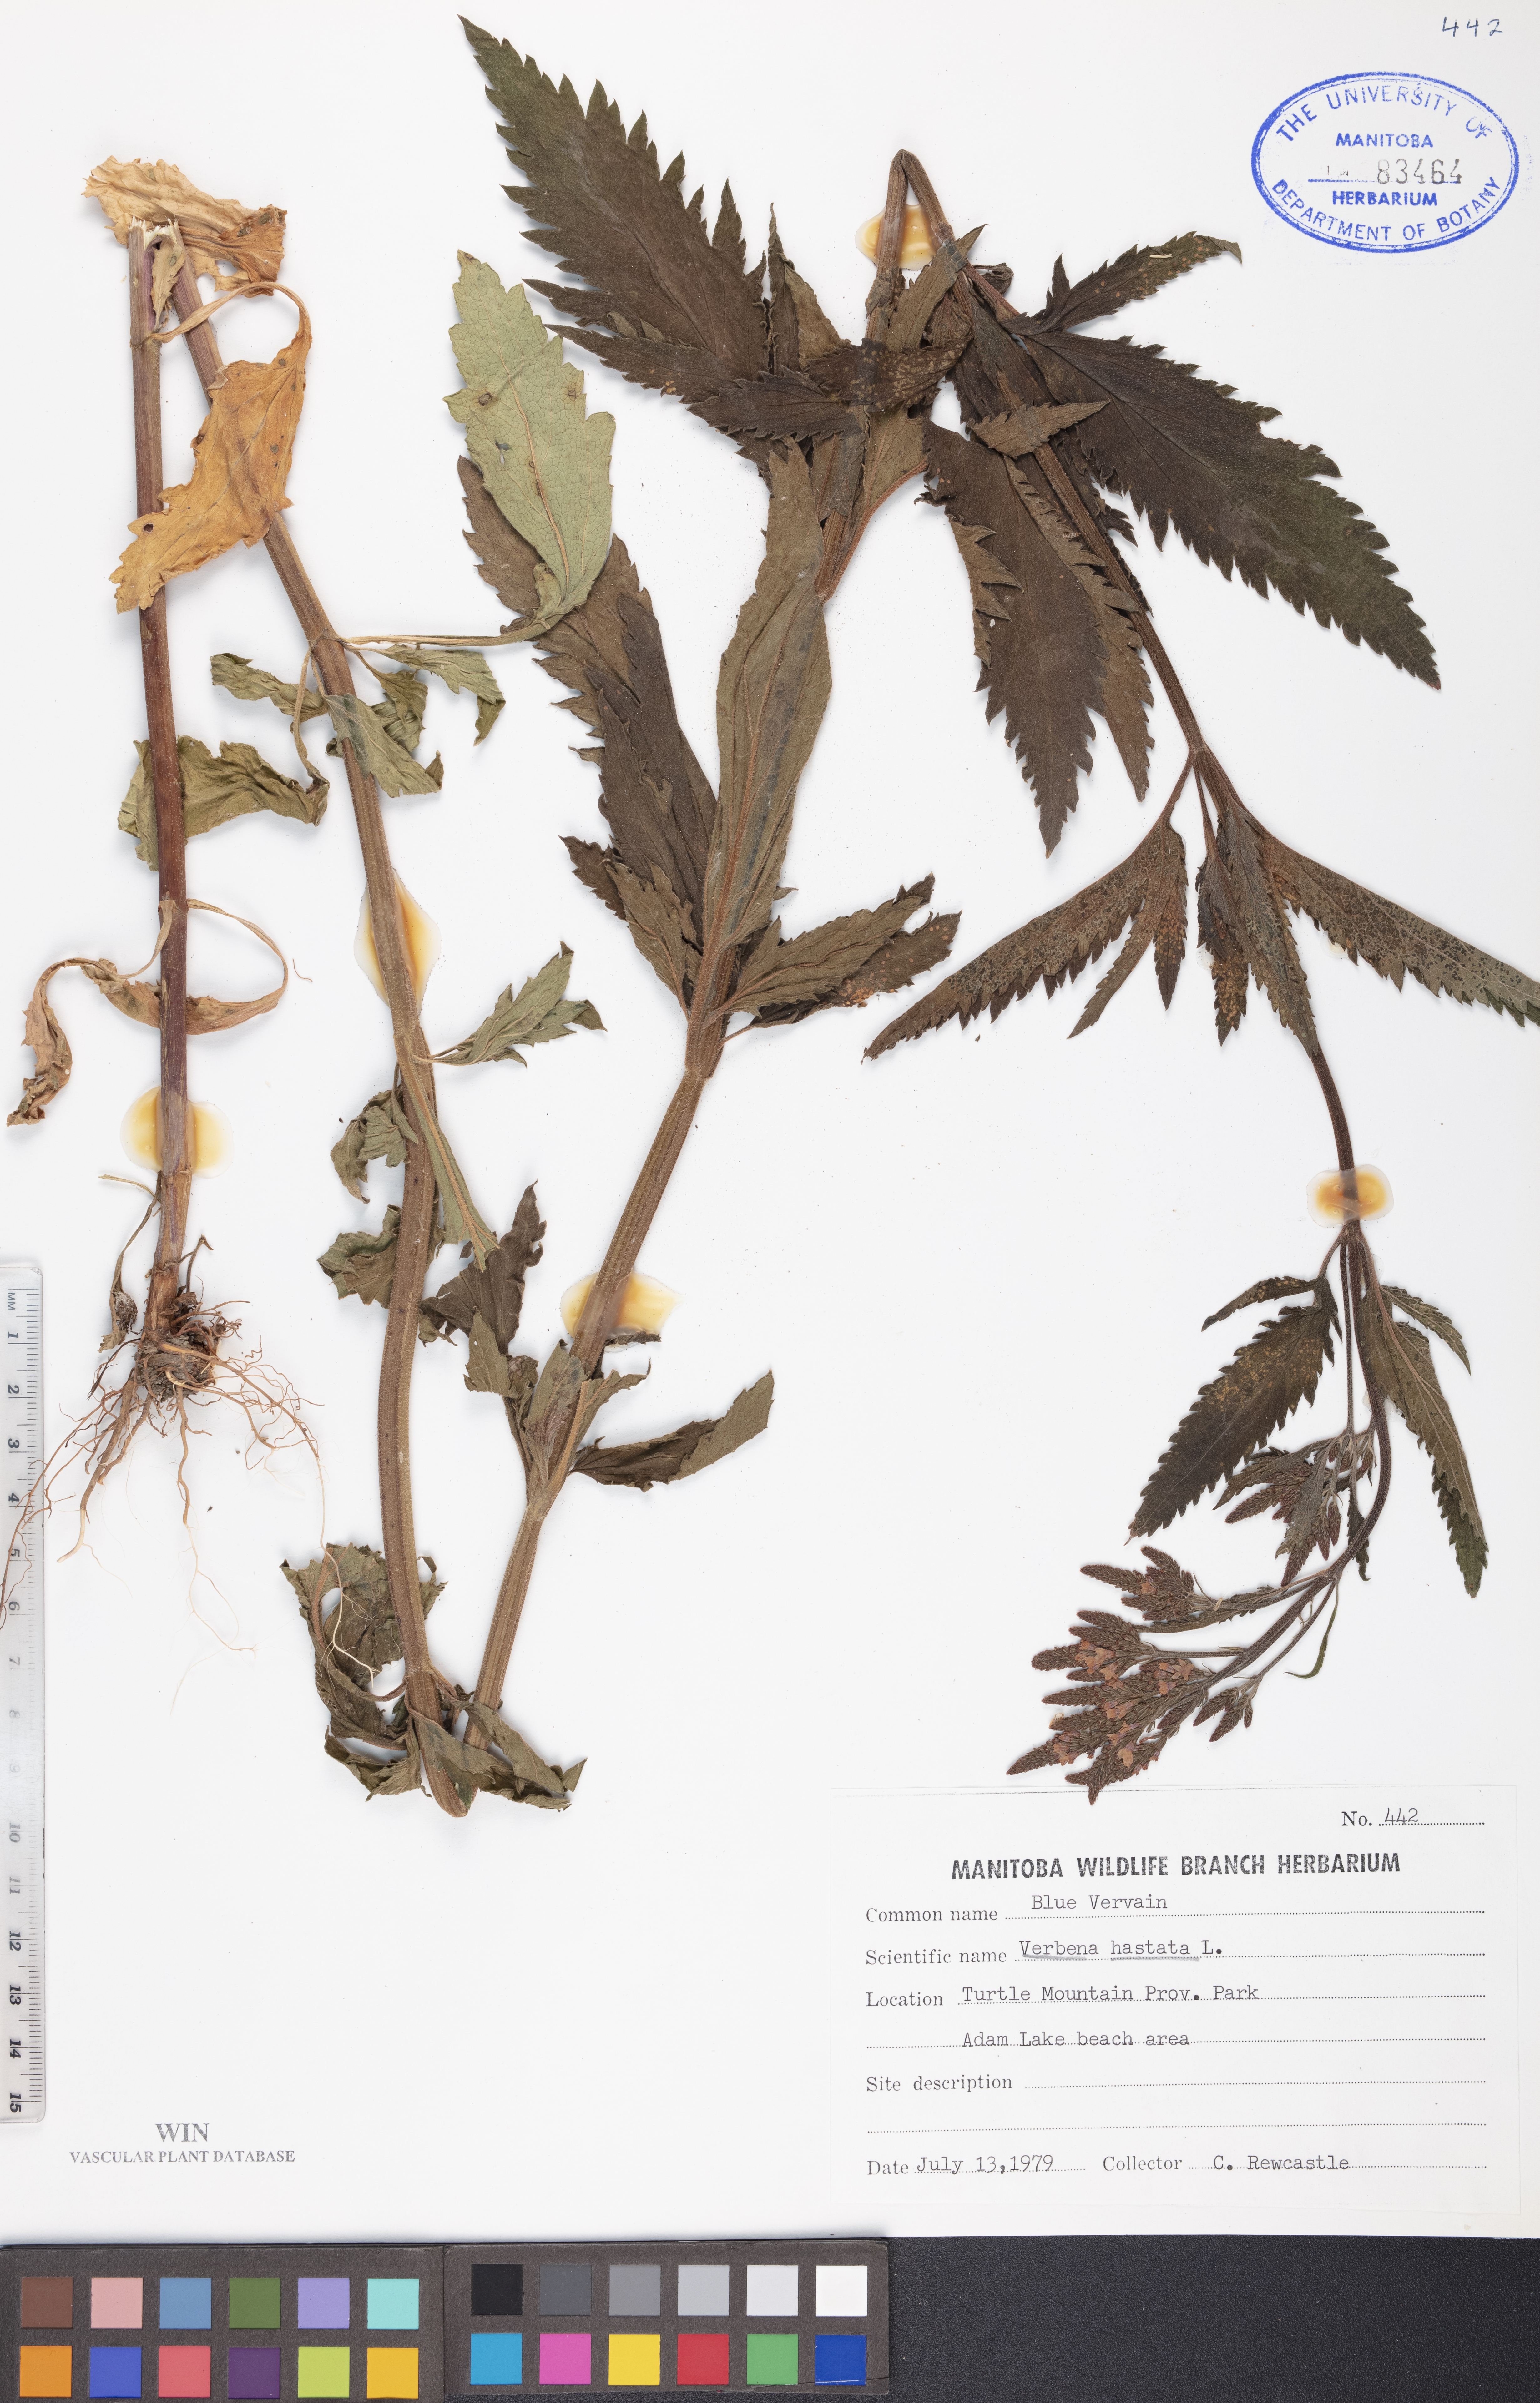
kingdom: Plantae
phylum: Tracheophyta
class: Magnoliopsida
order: Lamiales
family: Verbenaceae
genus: Verbena
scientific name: Verbena hastata
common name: American blue vervain
